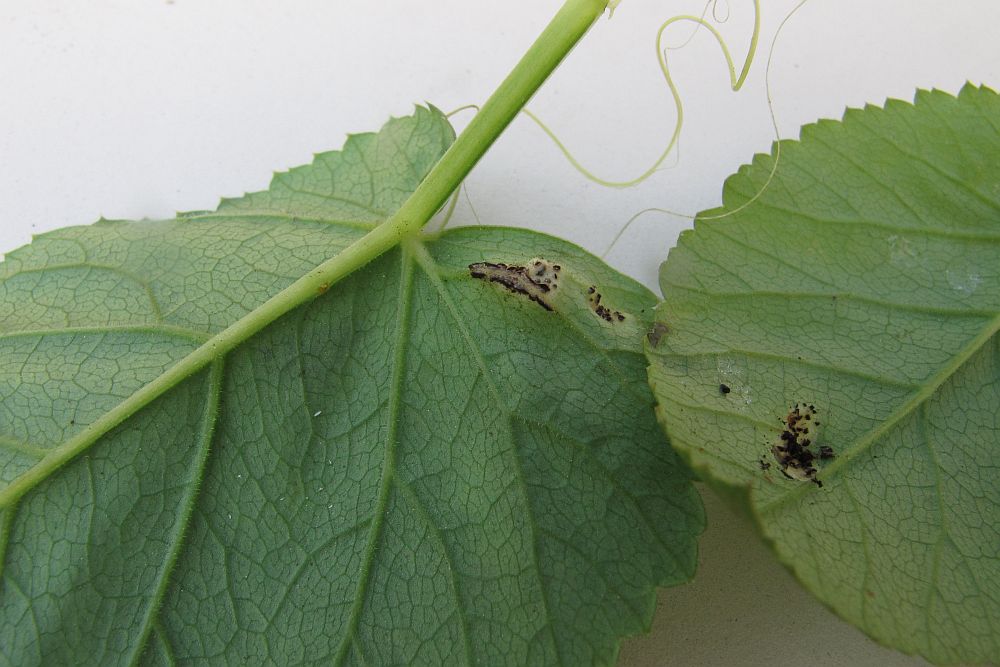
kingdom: Fungi
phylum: Basidiomycota
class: Pucciniomycetes
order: Pucciniales
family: Pucciniaceae
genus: Puccinia
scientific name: Puccinia
